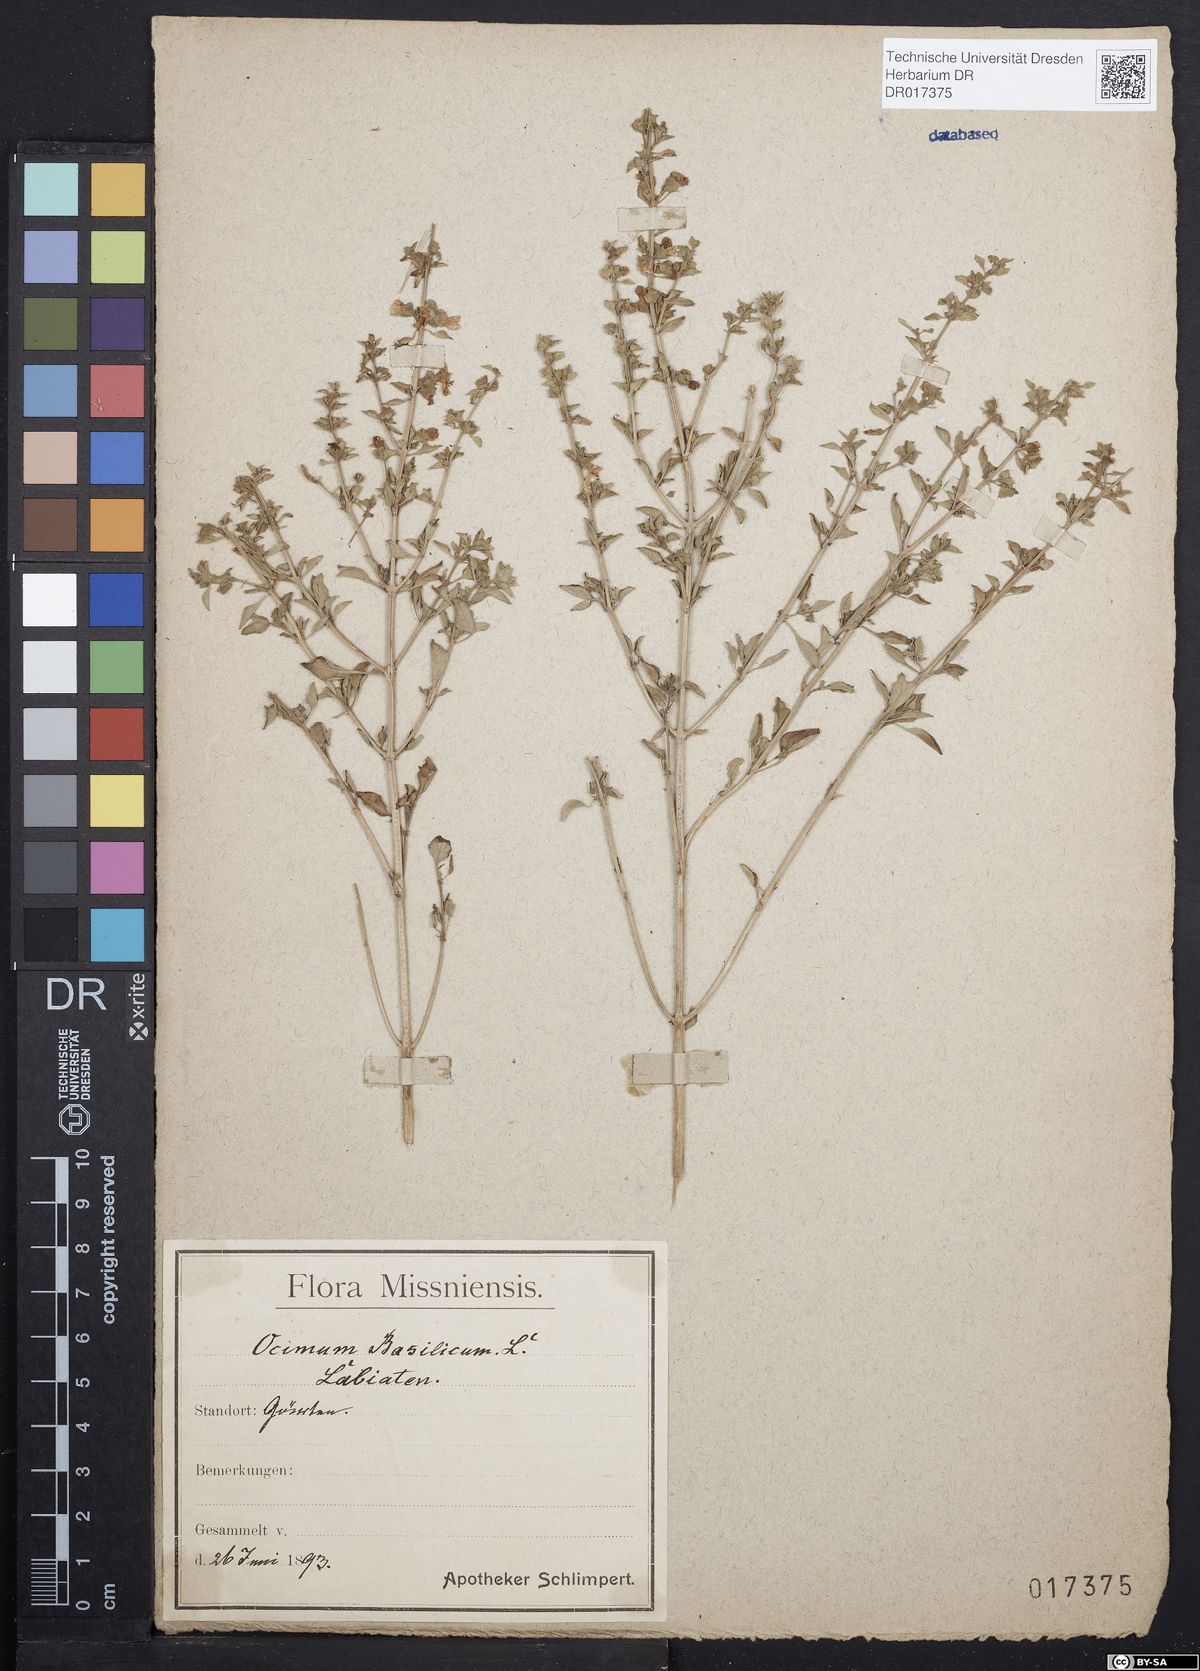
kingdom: Plantae
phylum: Tracheophyta
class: Magnoliopsida
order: Lamiales
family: Lamiaceae
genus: Ocimum
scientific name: Ocimum basilicum
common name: Sweet basil
